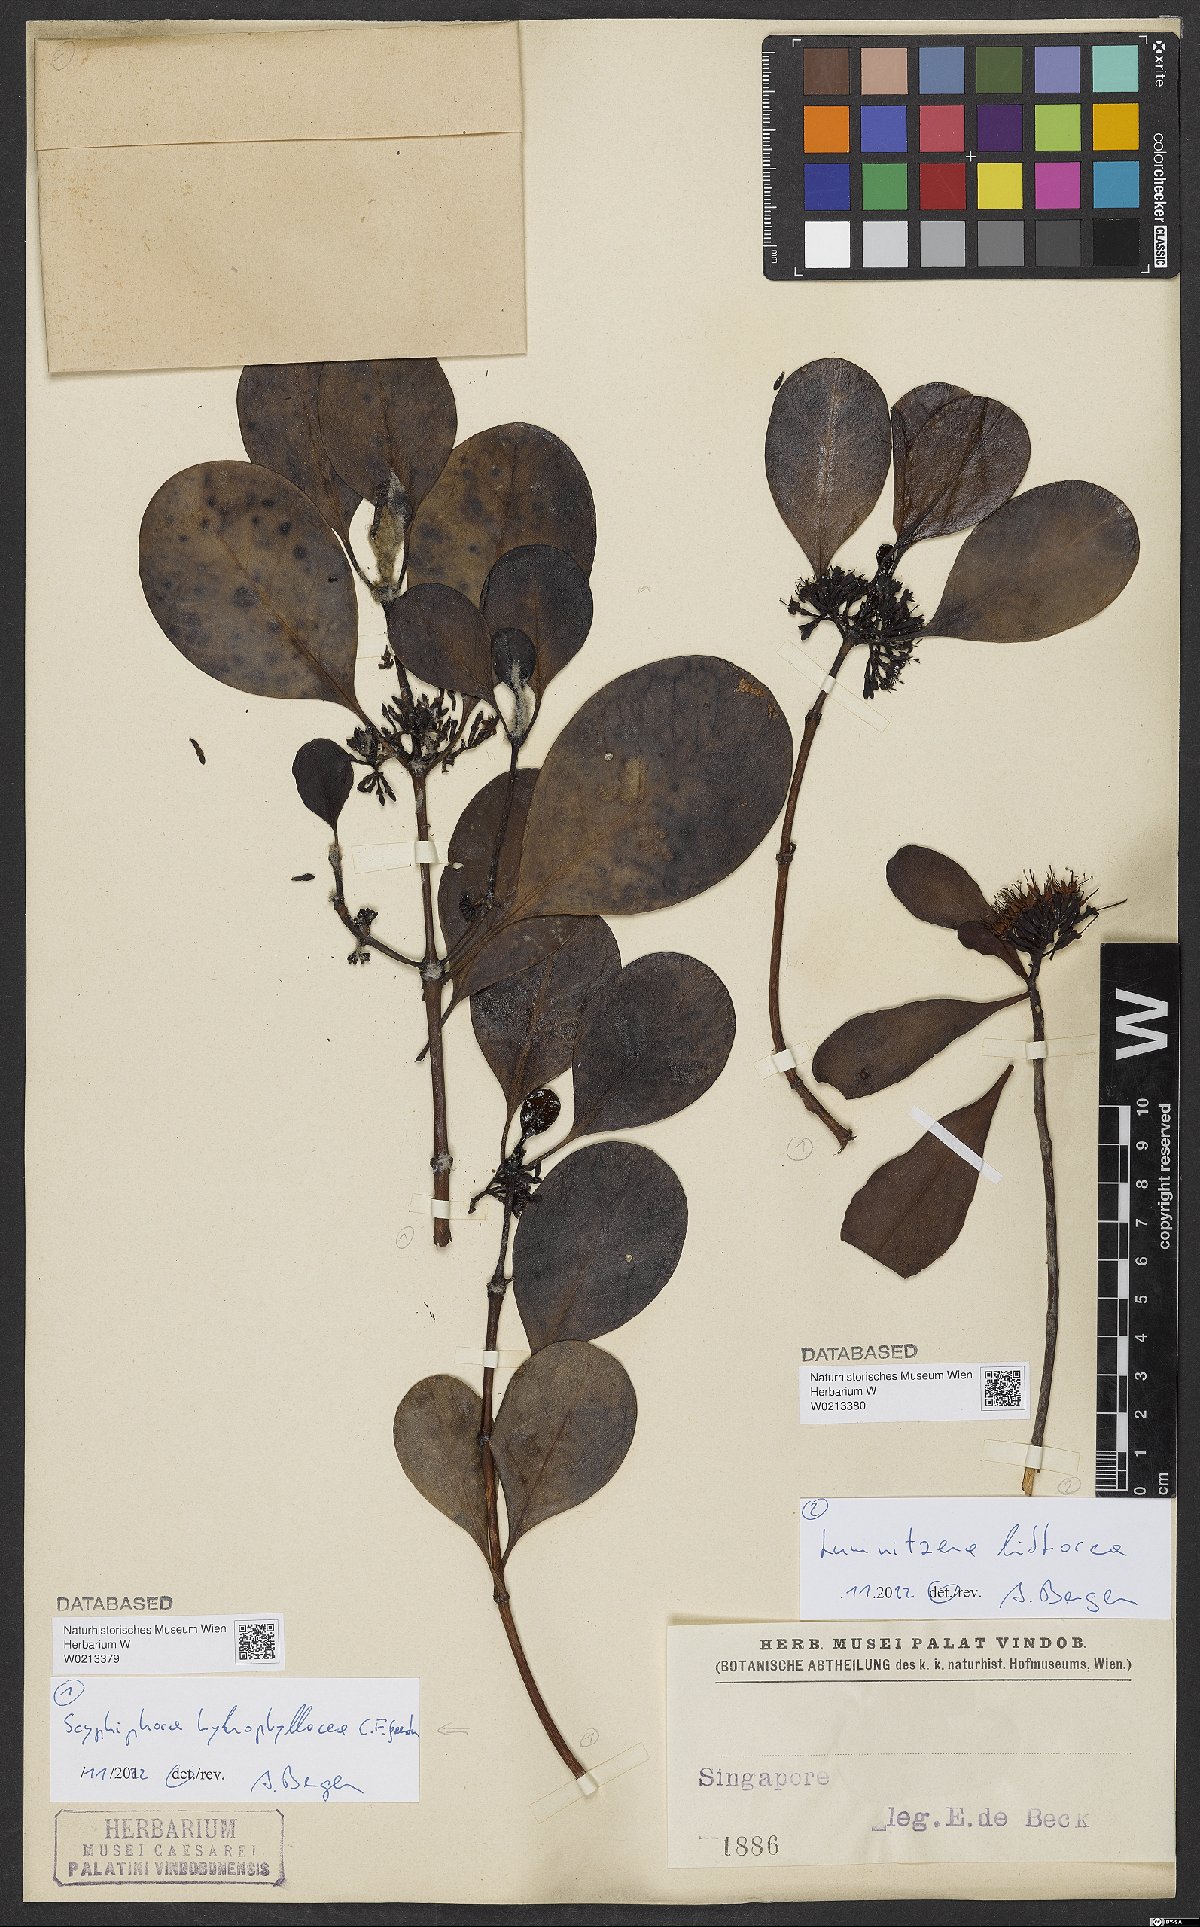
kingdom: Plantae
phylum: Tracheophyta
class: Magnoliopsida
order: Myrtales
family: Combretaceae
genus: Lumnitzera
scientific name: Lumnitzera littorea
